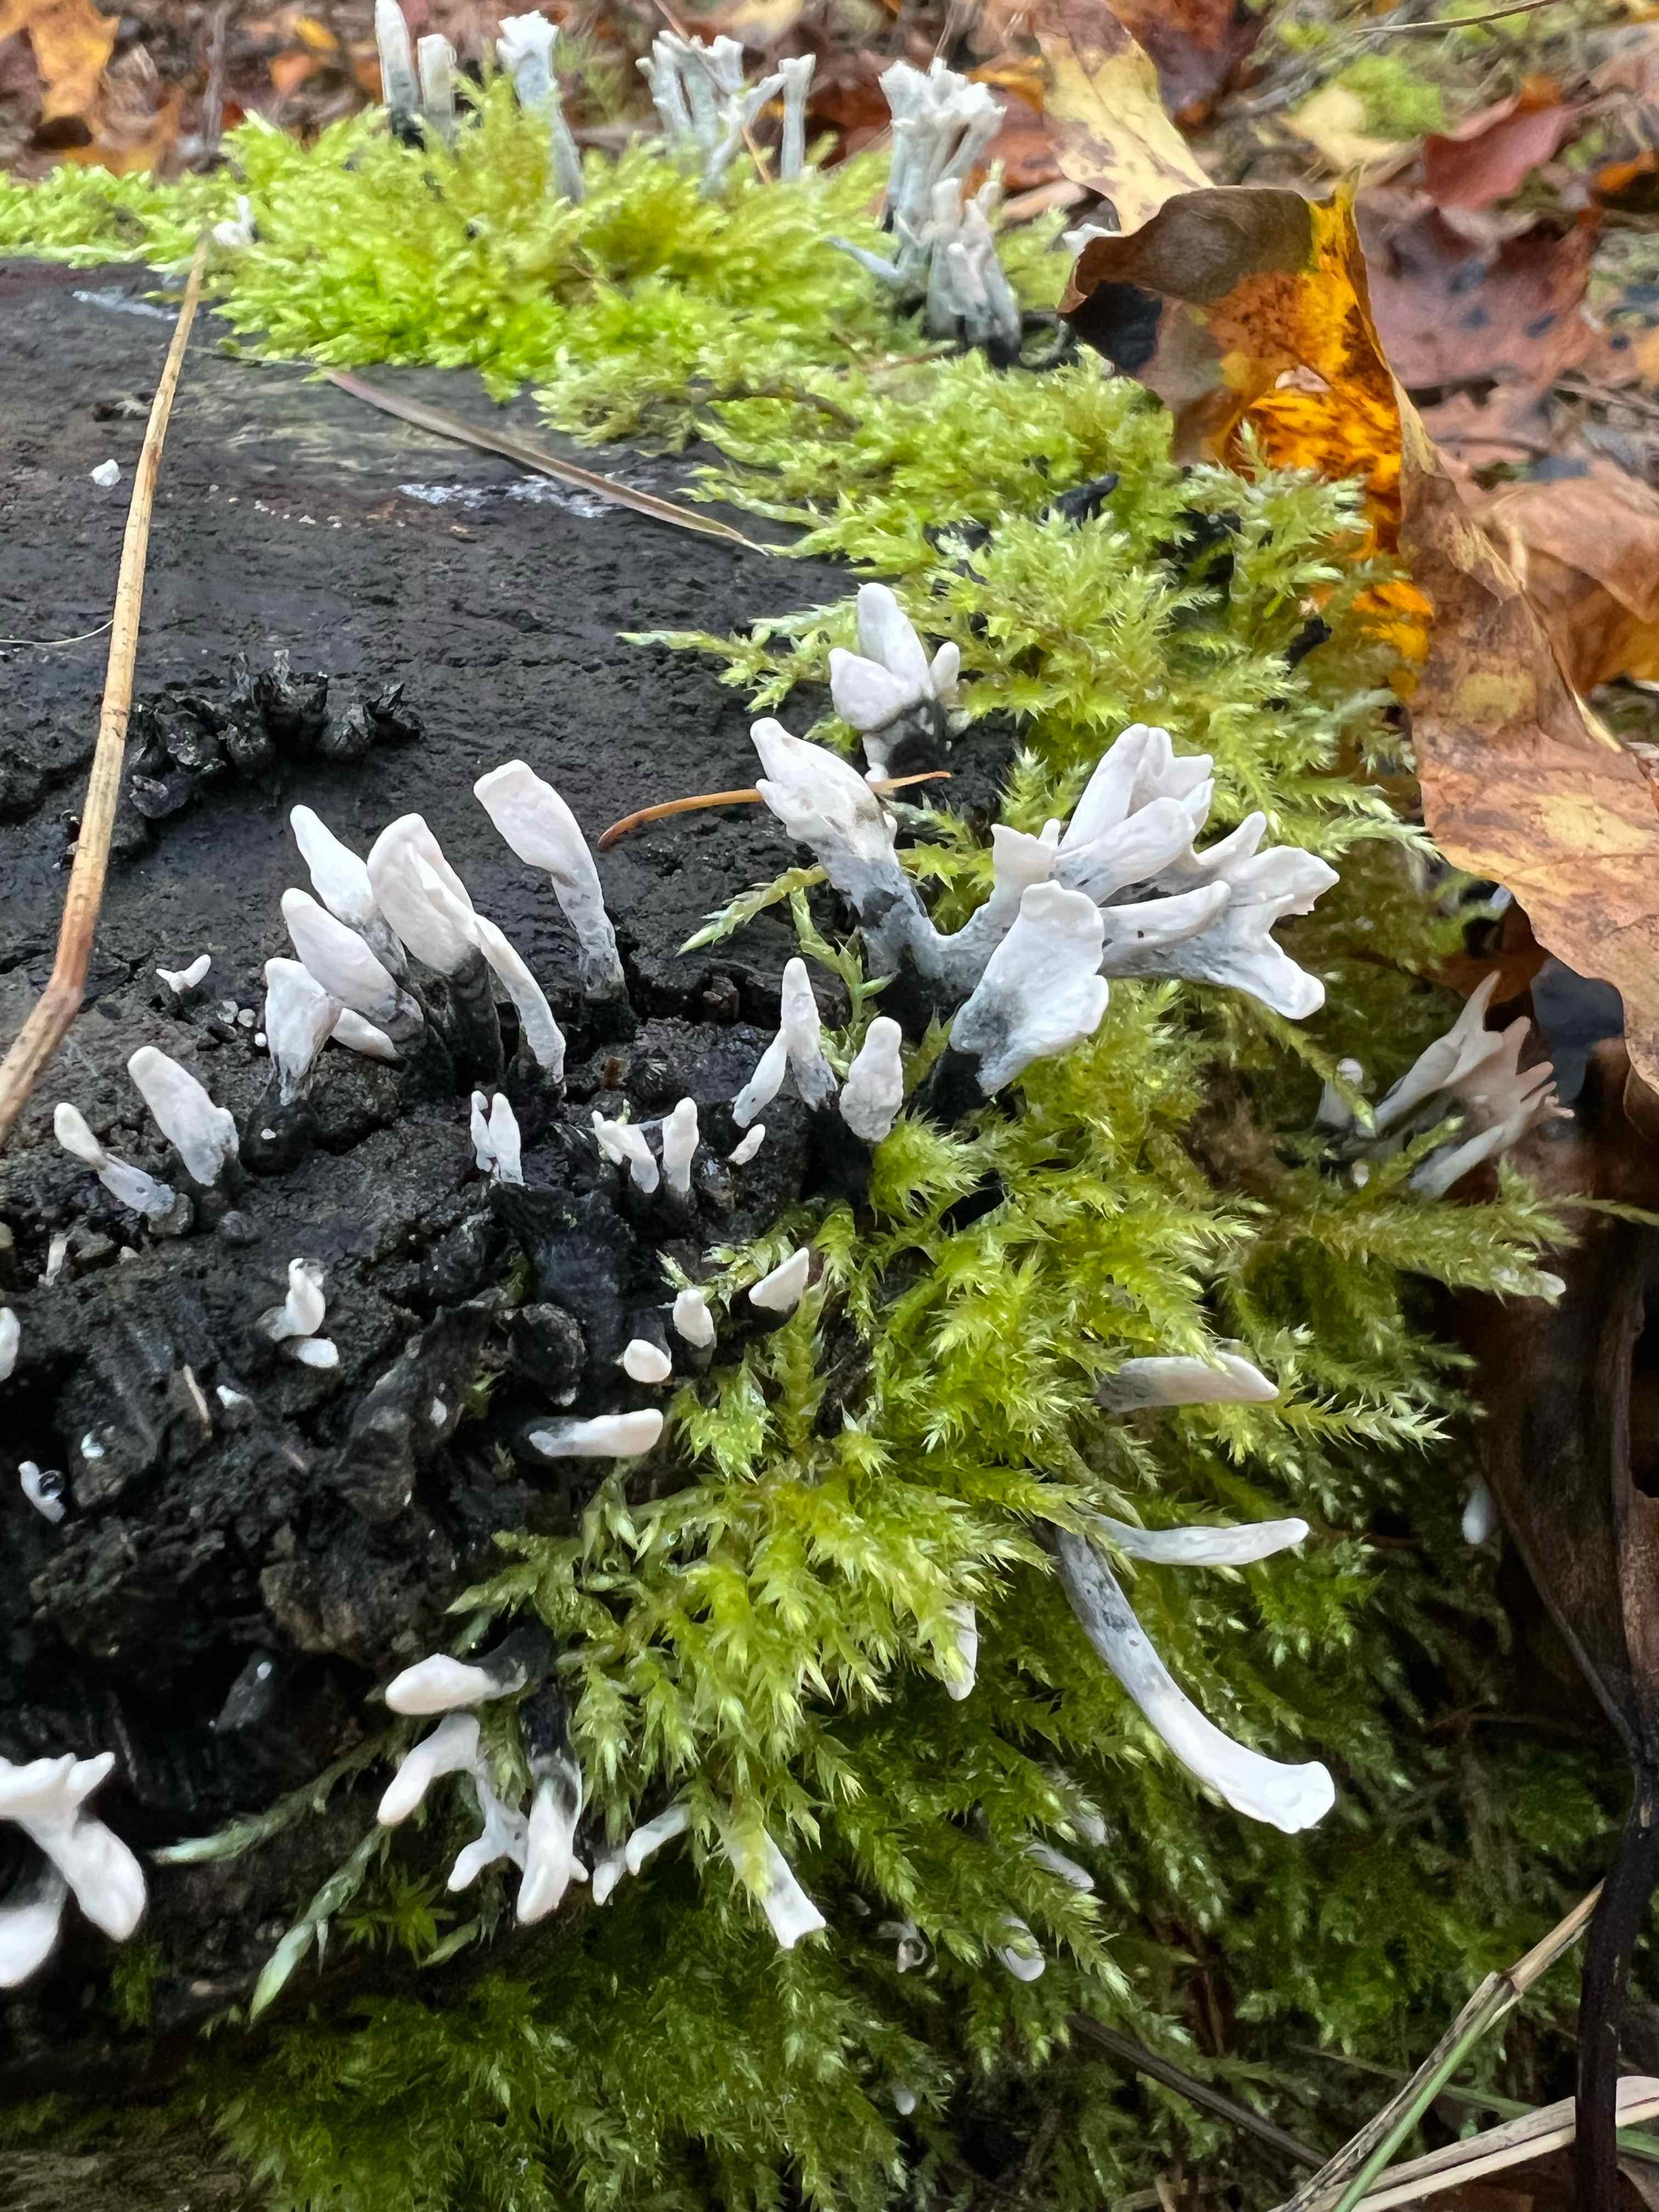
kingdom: Fungi
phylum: Ascomycota
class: Sordariomycetes
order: Xylariales
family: Xylariaceae
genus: Xylaria
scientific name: Xylaria hypoxylon
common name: grenet stødsvamp
